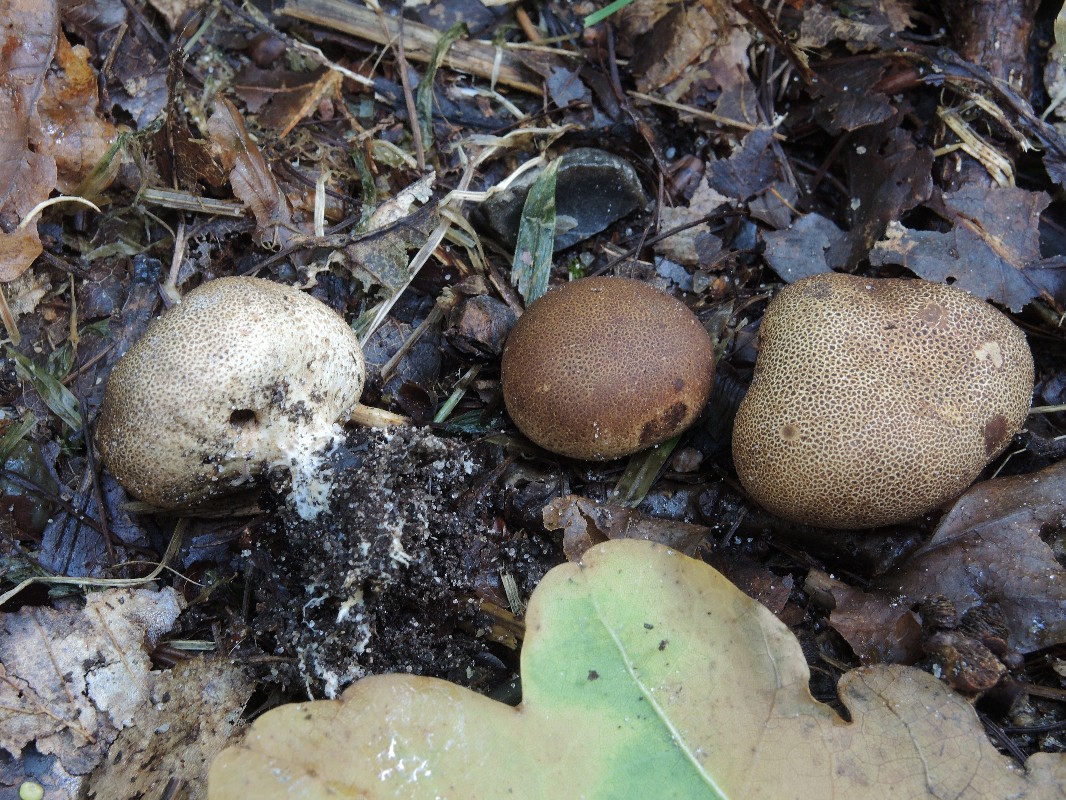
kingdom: Fungi
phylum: Basidiomycota
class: Agaricomycetes
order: Boletales
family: Sclerodermataceae
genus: Scleroderma
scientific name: Scleroderma areolatum
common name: plettet bruskbold
